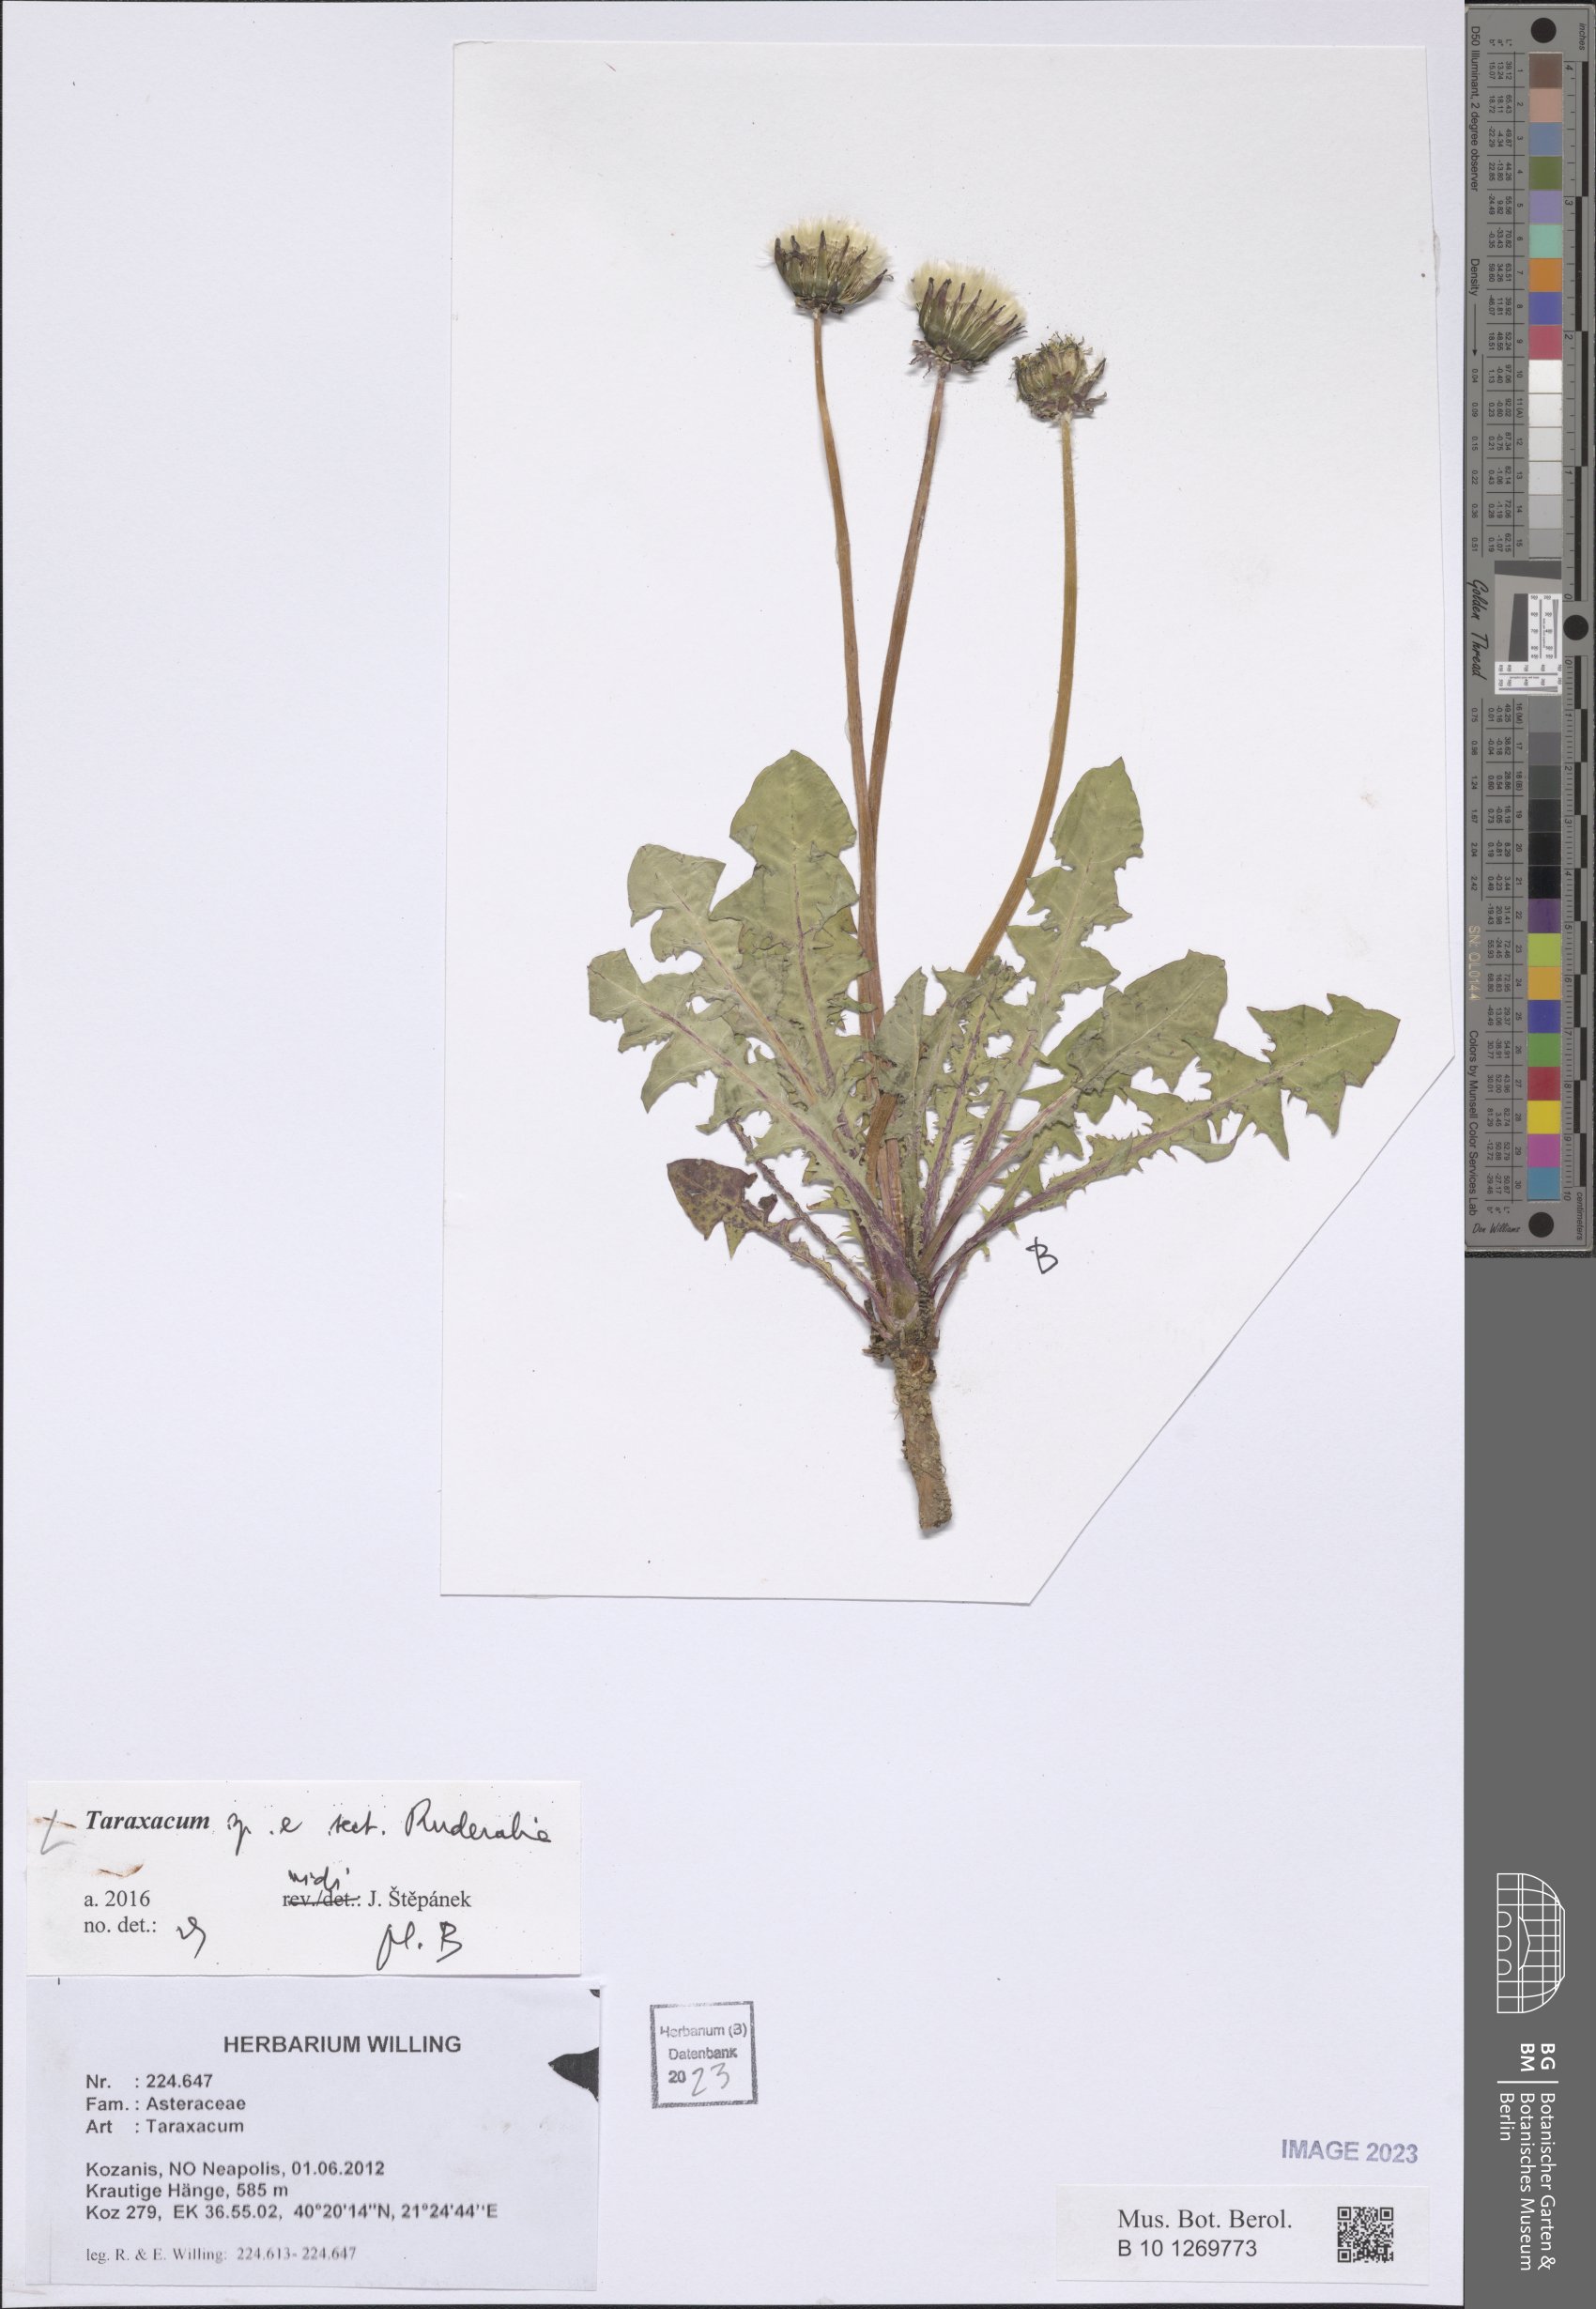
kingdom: Plantae
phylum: Tracheophyta
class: Magnoliopsida
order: Asterales
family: Asteraceae
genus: Taraxacum
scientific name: Taraxacum
